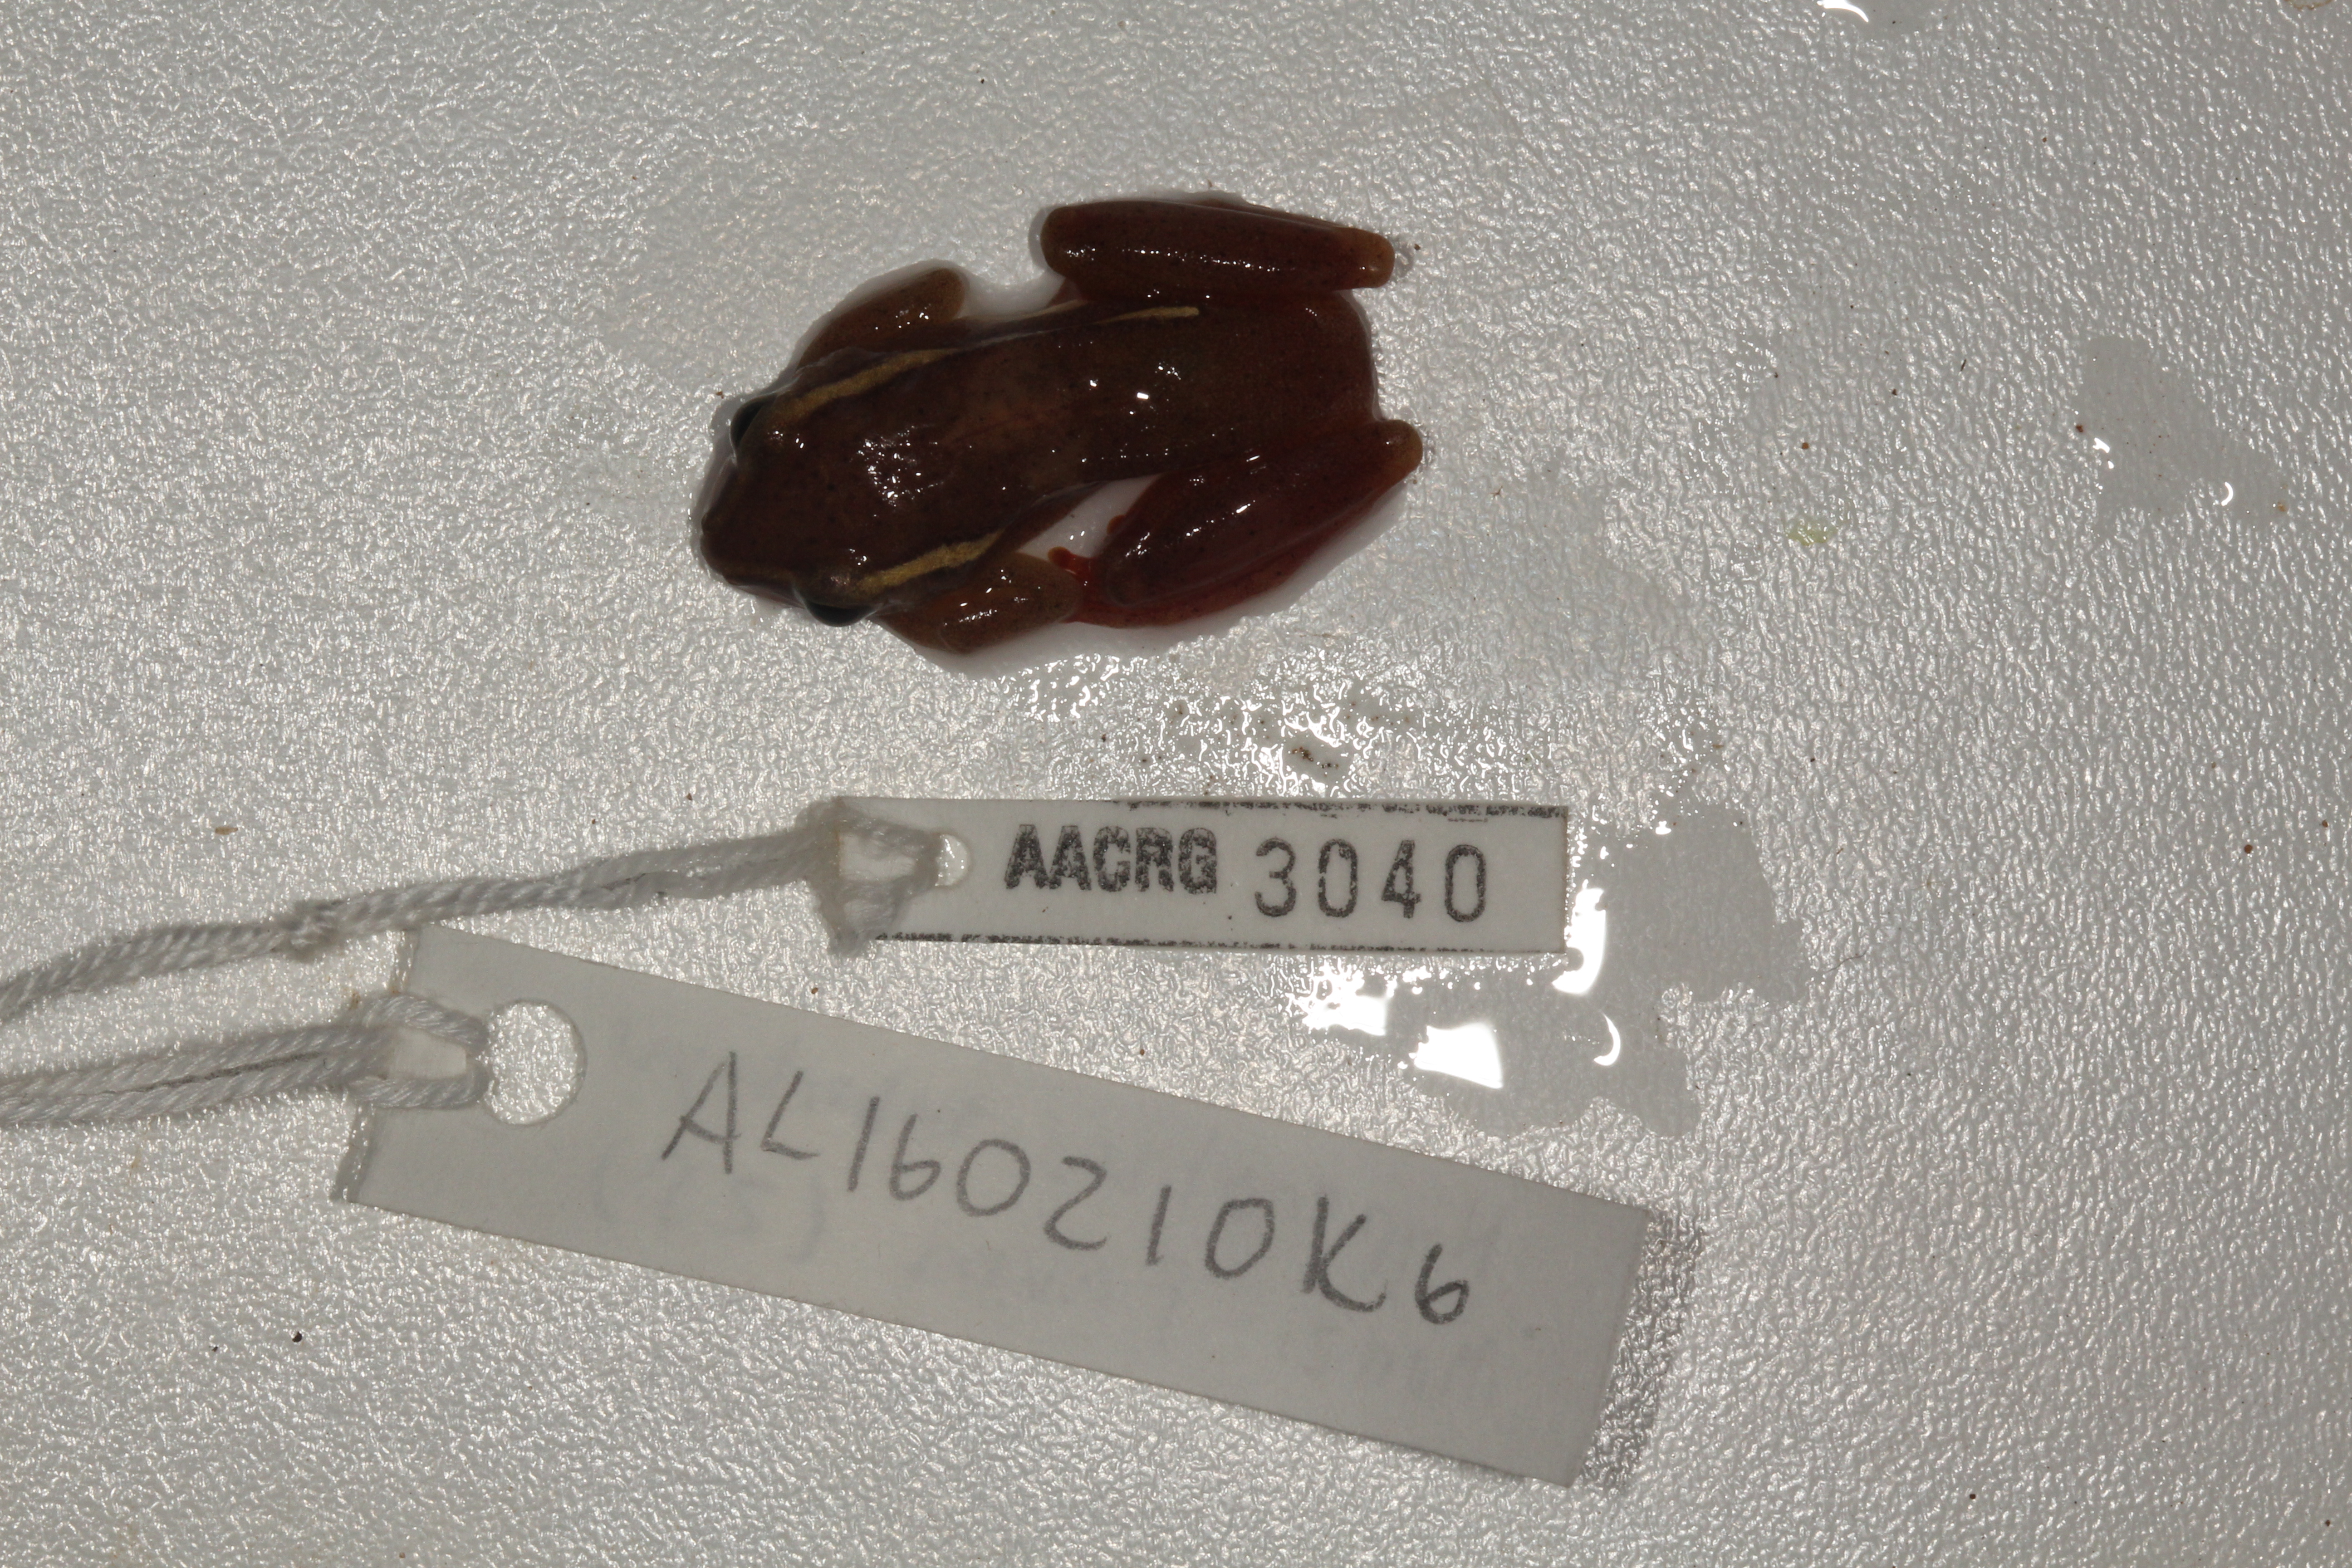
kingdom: Animalia
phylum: Chordata
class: Amphibia
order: Anura
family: Hyperoliidae
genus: Hyperolius
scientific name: Hyperolius argus
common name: Argus reed frog
